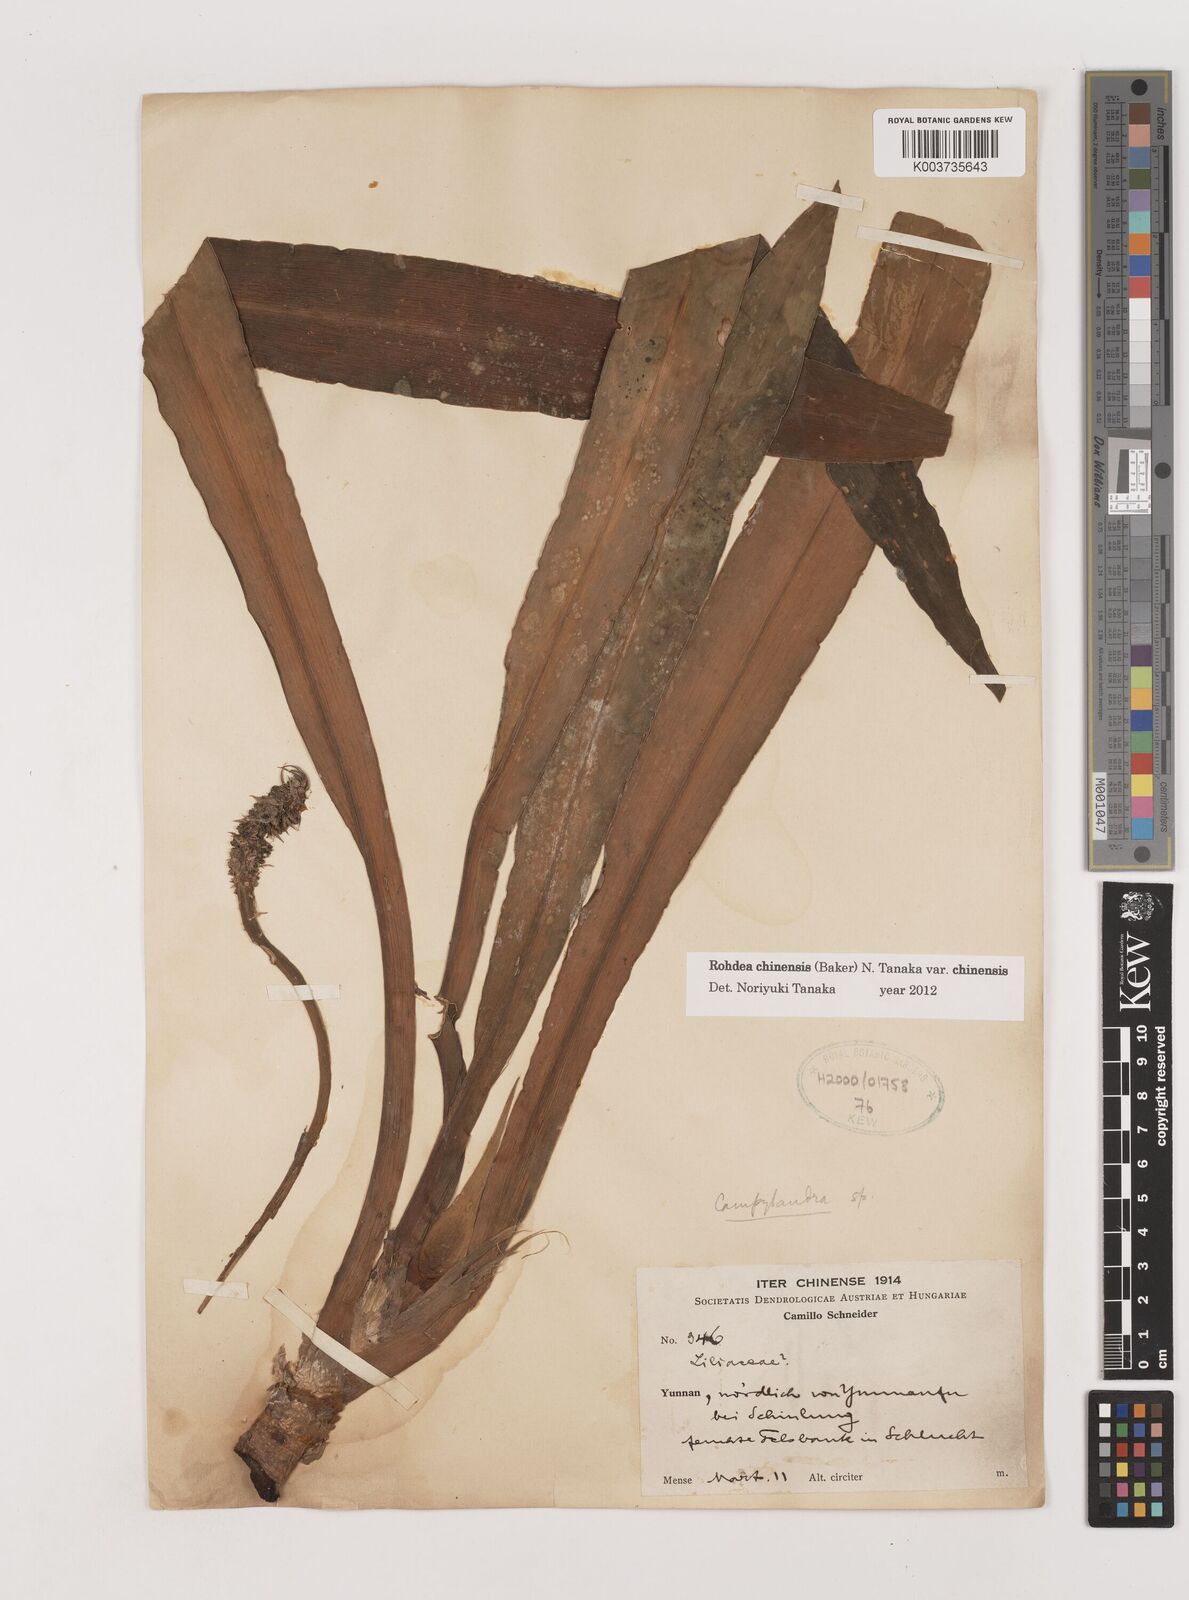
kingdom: Plantae
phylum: Tracheophyta
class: Liliopsida
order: Asparagales
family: Asparagaceae
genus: Rohdea
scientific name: Rohdea fargesii
